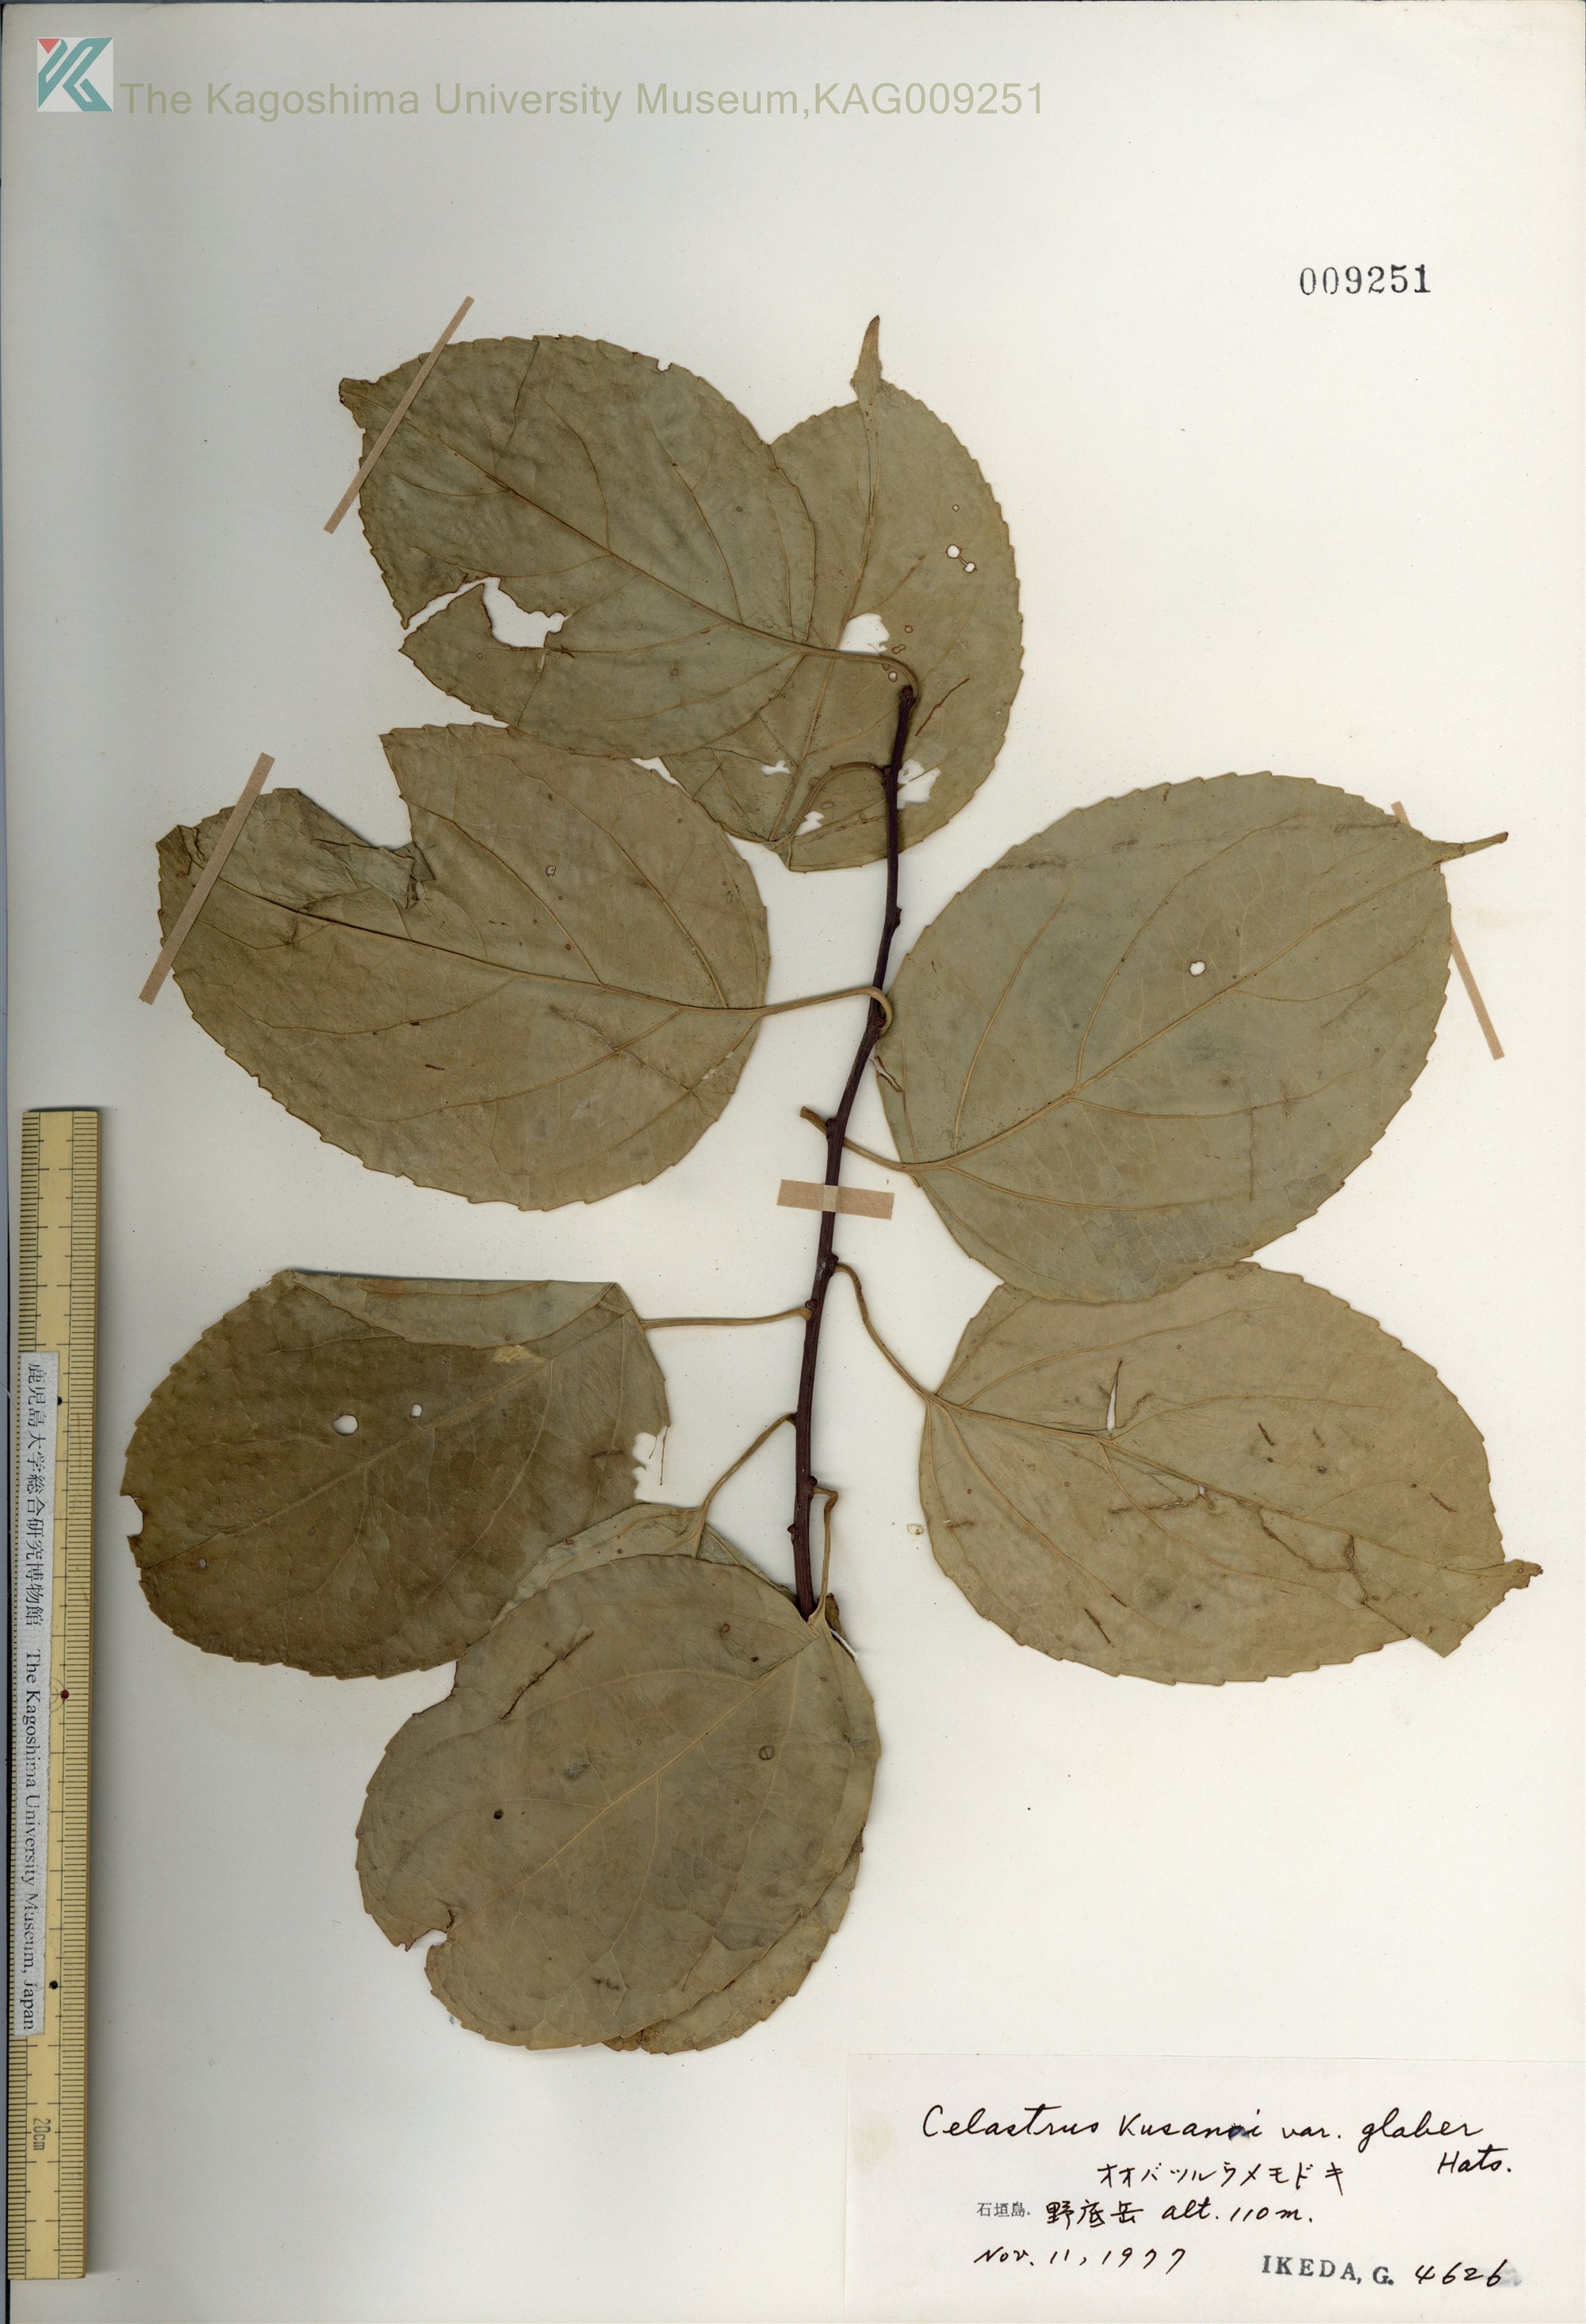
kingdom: Plantae
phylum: Tracheophyta
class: Magnoliopsida
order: Celastrales
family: Celastraceae
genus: Celastrus
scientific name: Celastrus hypoleucus
